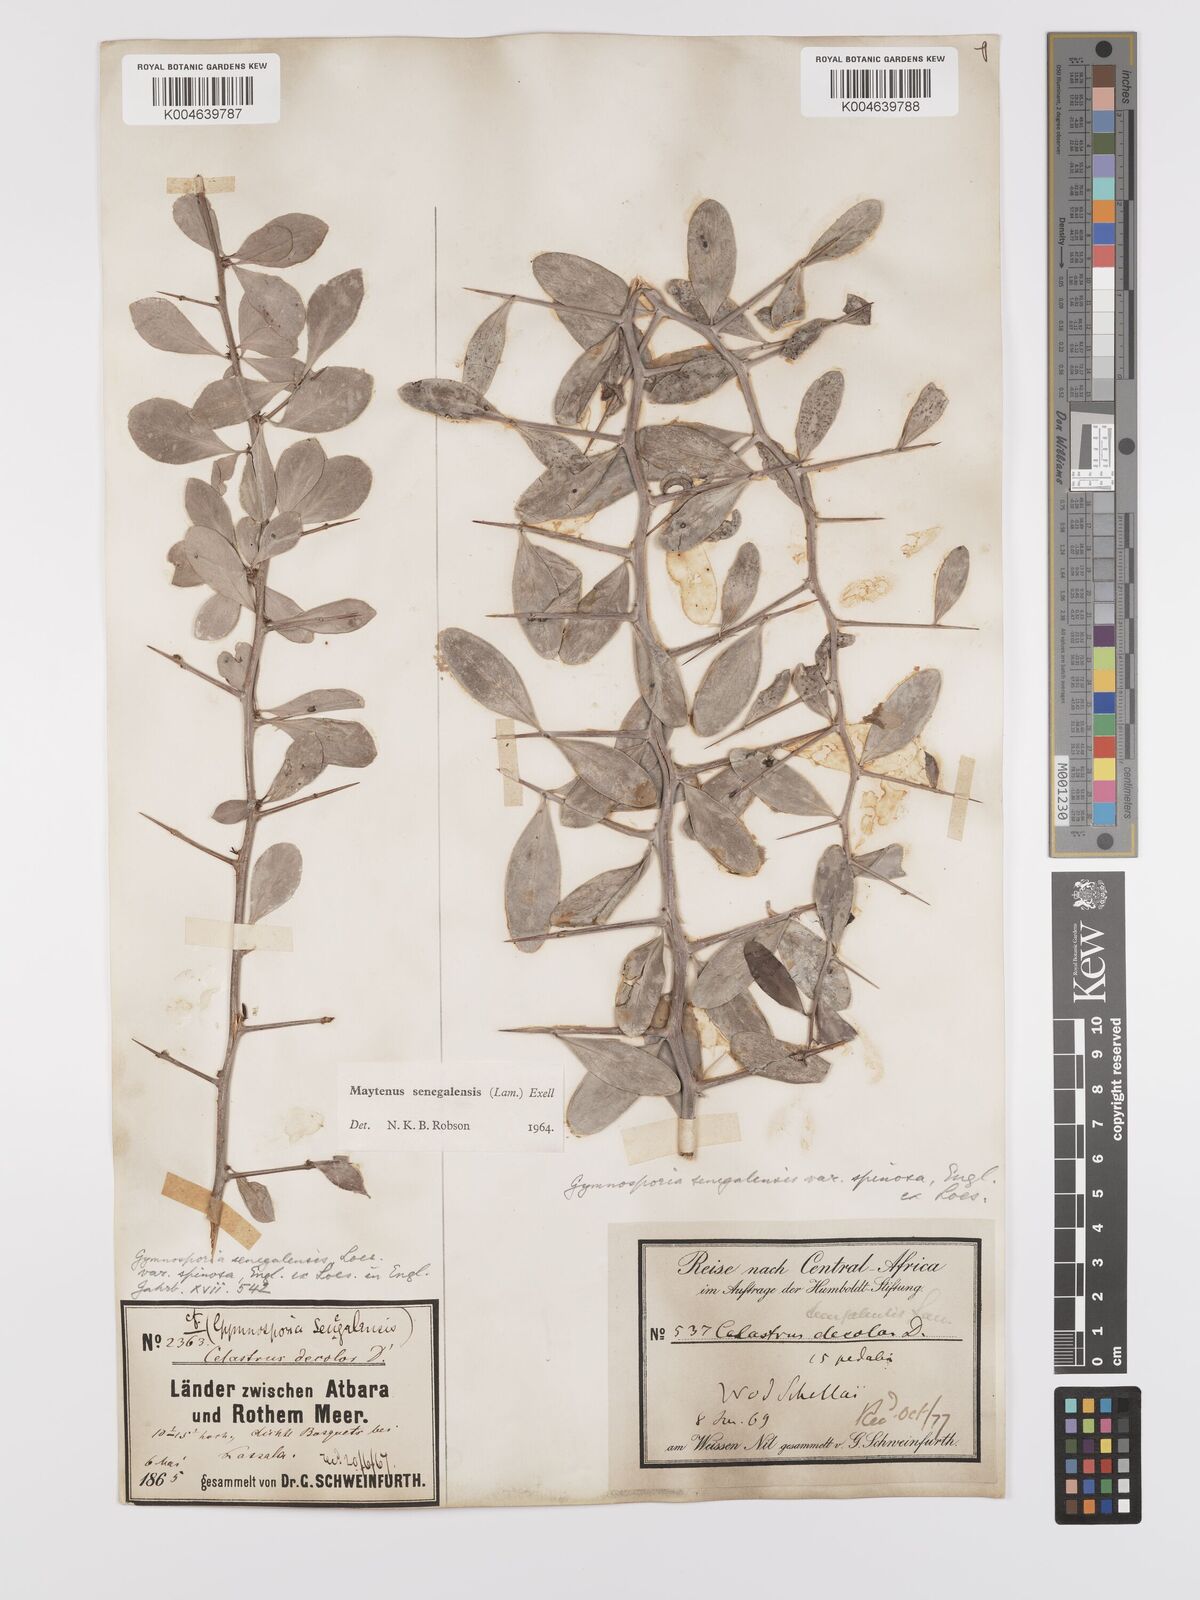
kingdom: Plantae
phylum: Tracheophyta
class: Magnoliopsida
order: Celastrales
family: Celastraceae
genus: Gymnosporia
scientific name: Gymnosporia senegalensis
